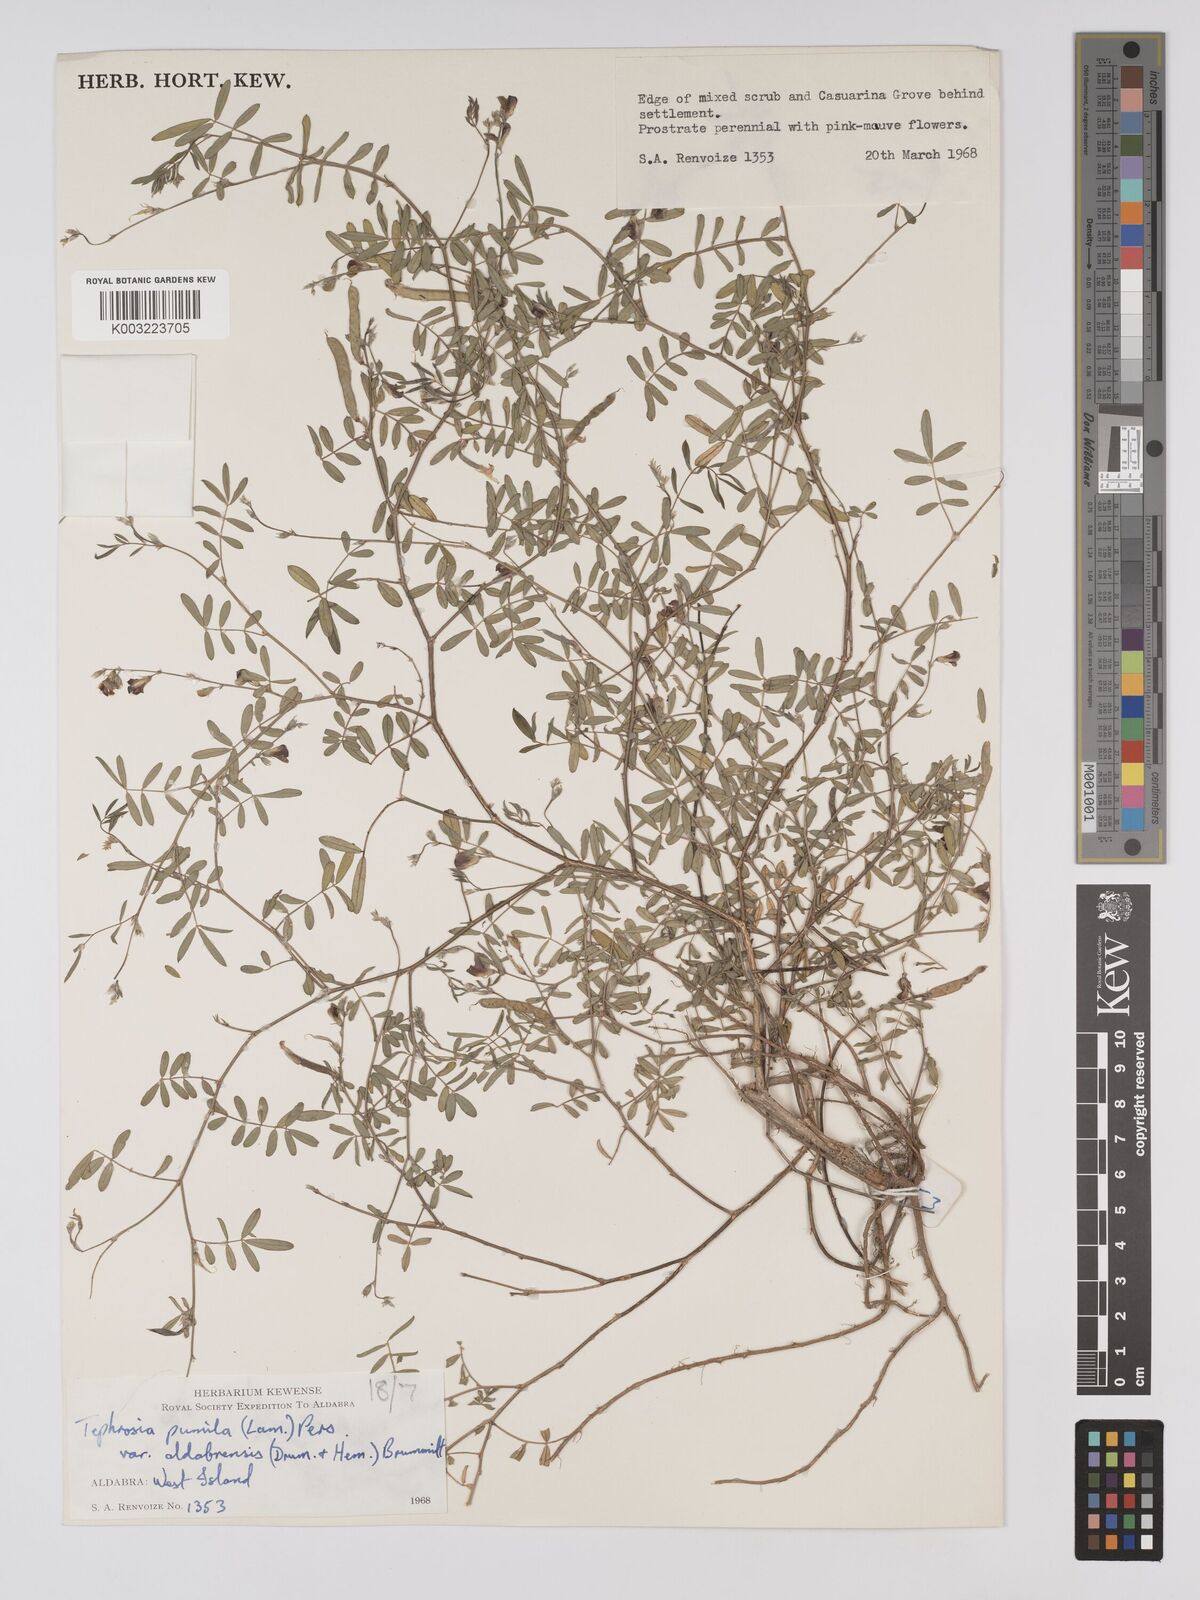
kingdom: Plantae
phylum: Tracheophyta
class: Magnoliopsida
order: Fabales
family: Fabaceae
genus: Tephrosia
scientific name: Tephrosia pumila
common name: Indigo sauvage
